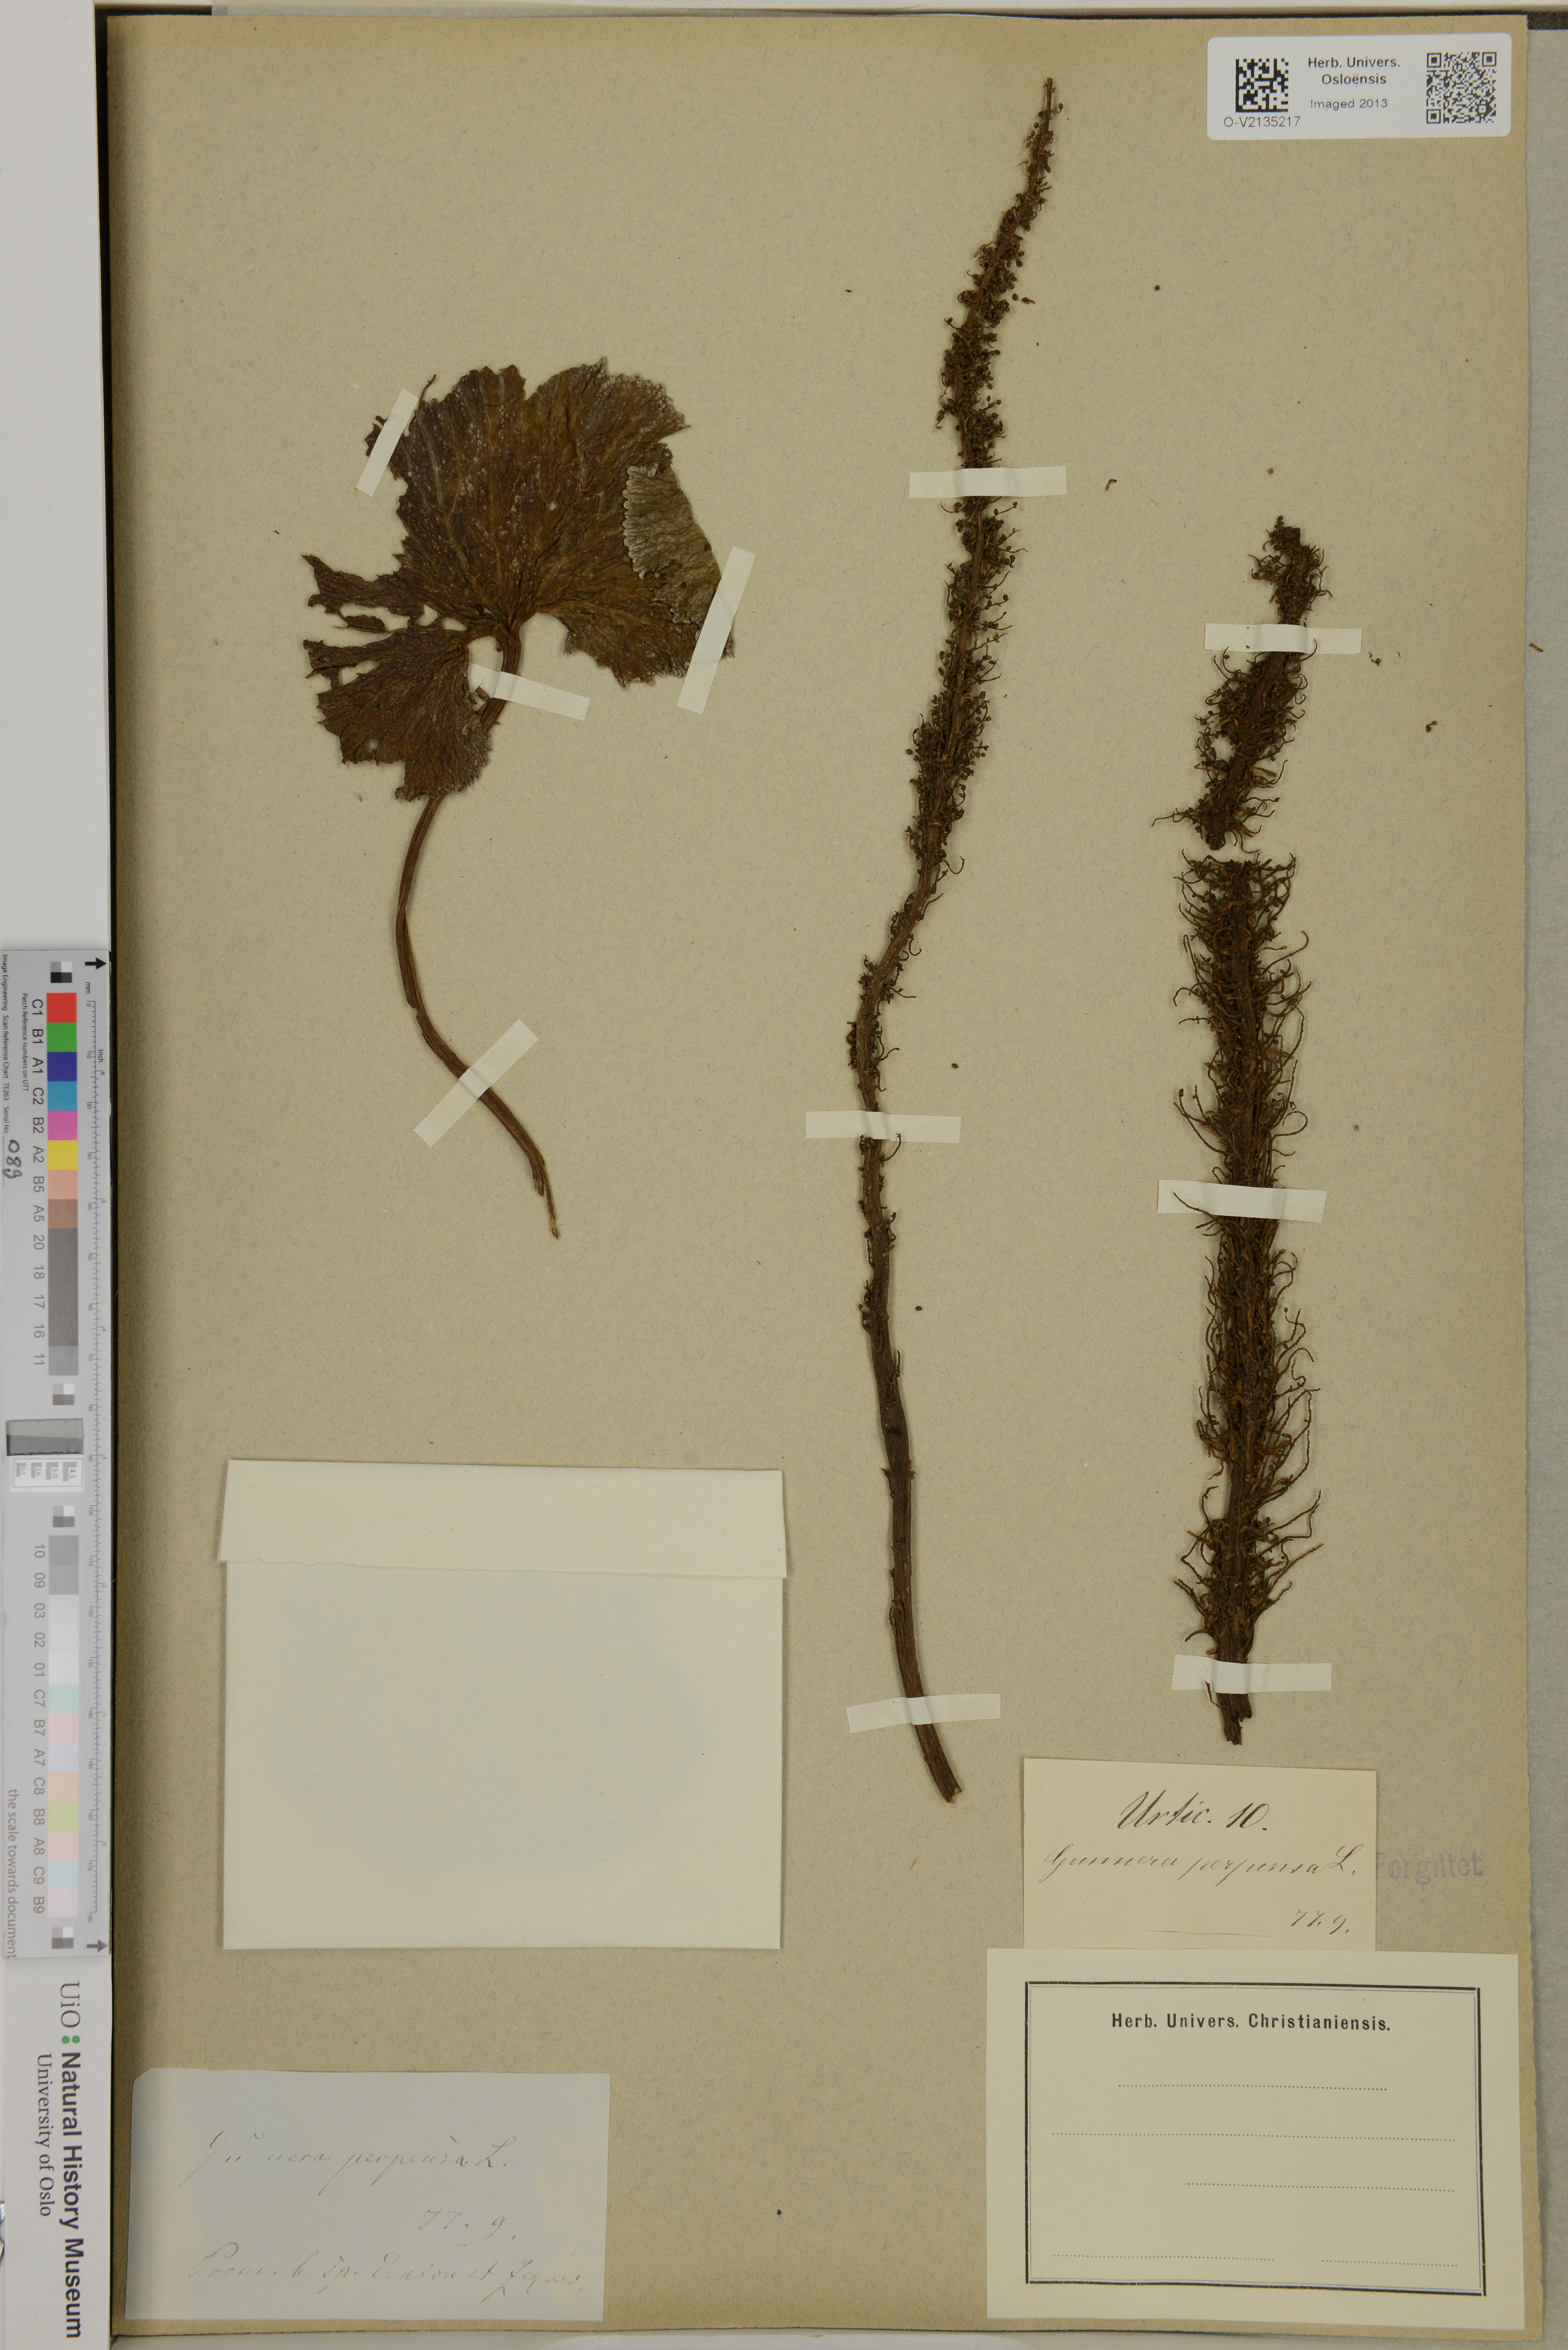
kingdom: Plantae
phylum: Tracheophyta
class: Magnoliopsida
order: Gunnerales
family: Gunneraceae
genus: Gunnera
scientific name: Gunnera perpensa
